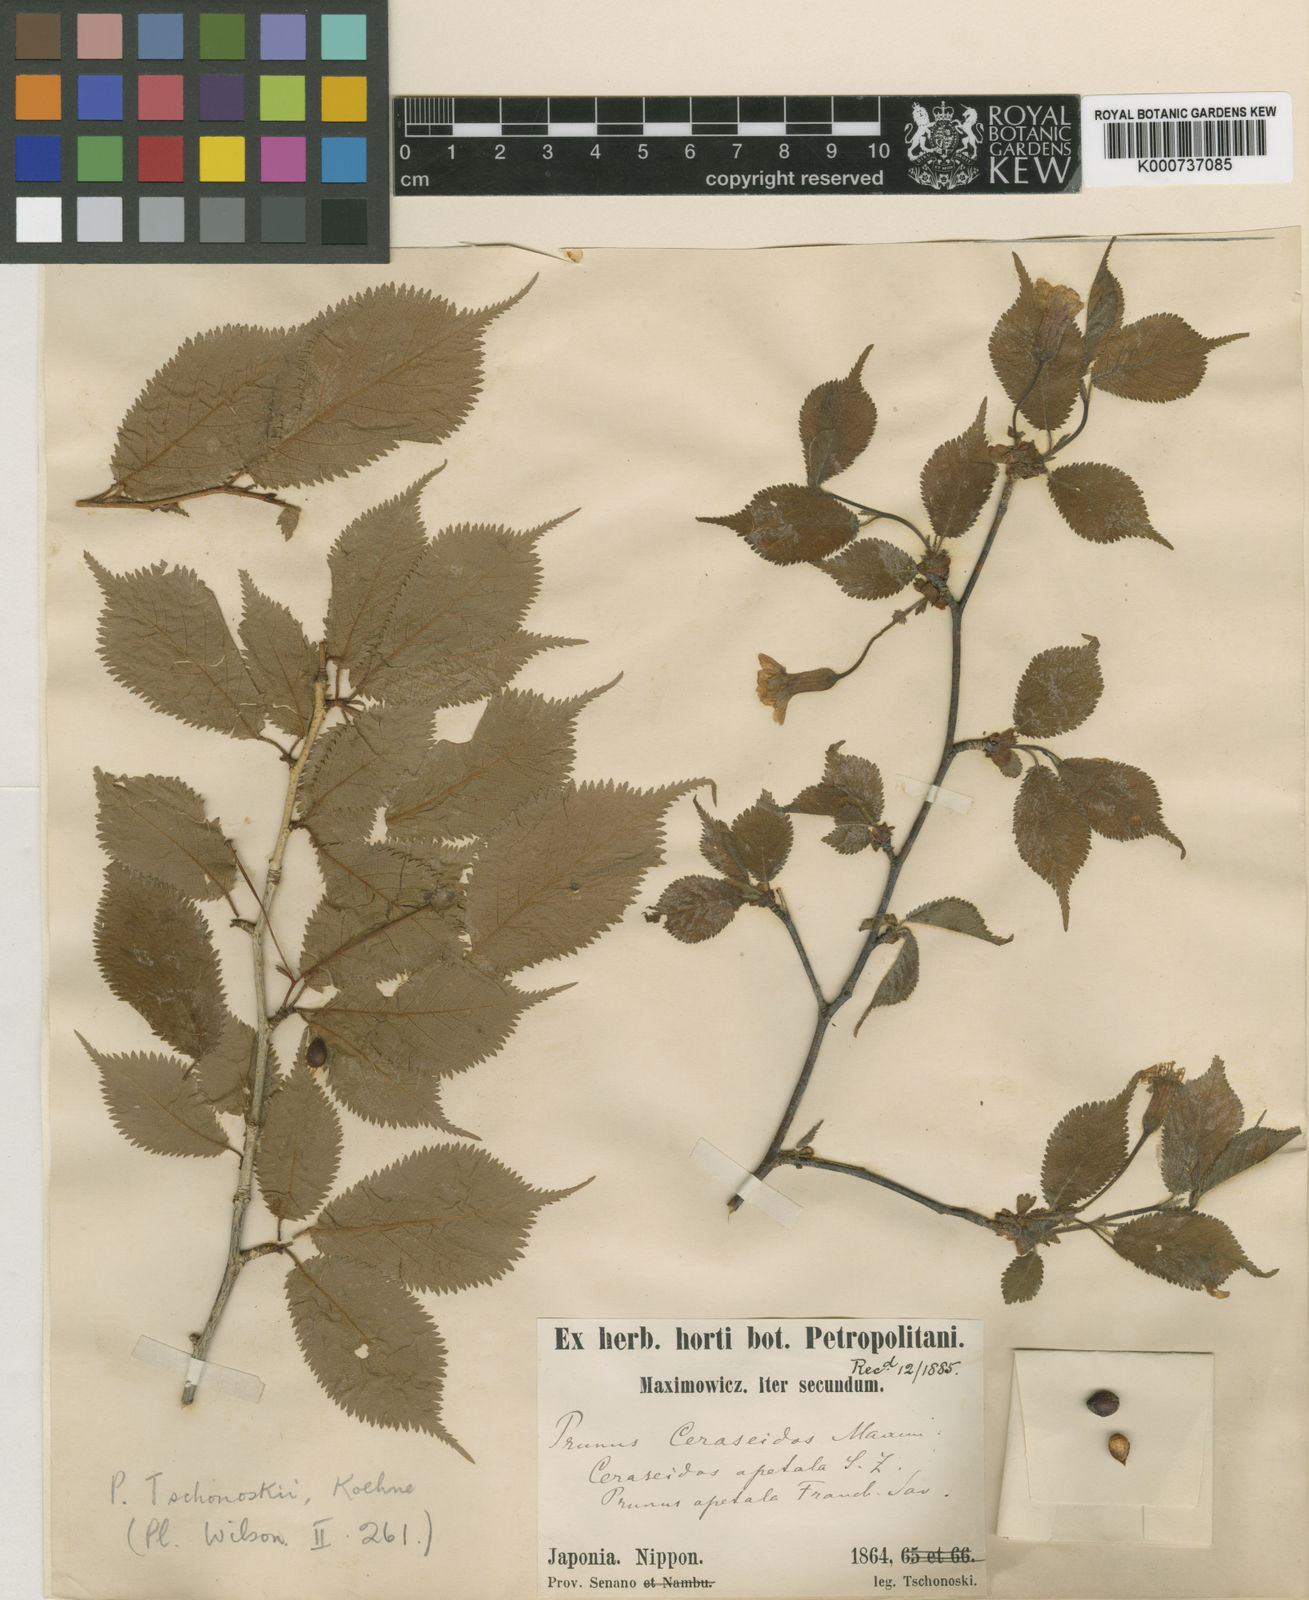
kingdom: Plantae
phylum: Tracheophyta
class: Magnoliopsida
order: Rosales
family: Rosaceae
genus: Prunus
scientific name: Prunus tschonoskii
